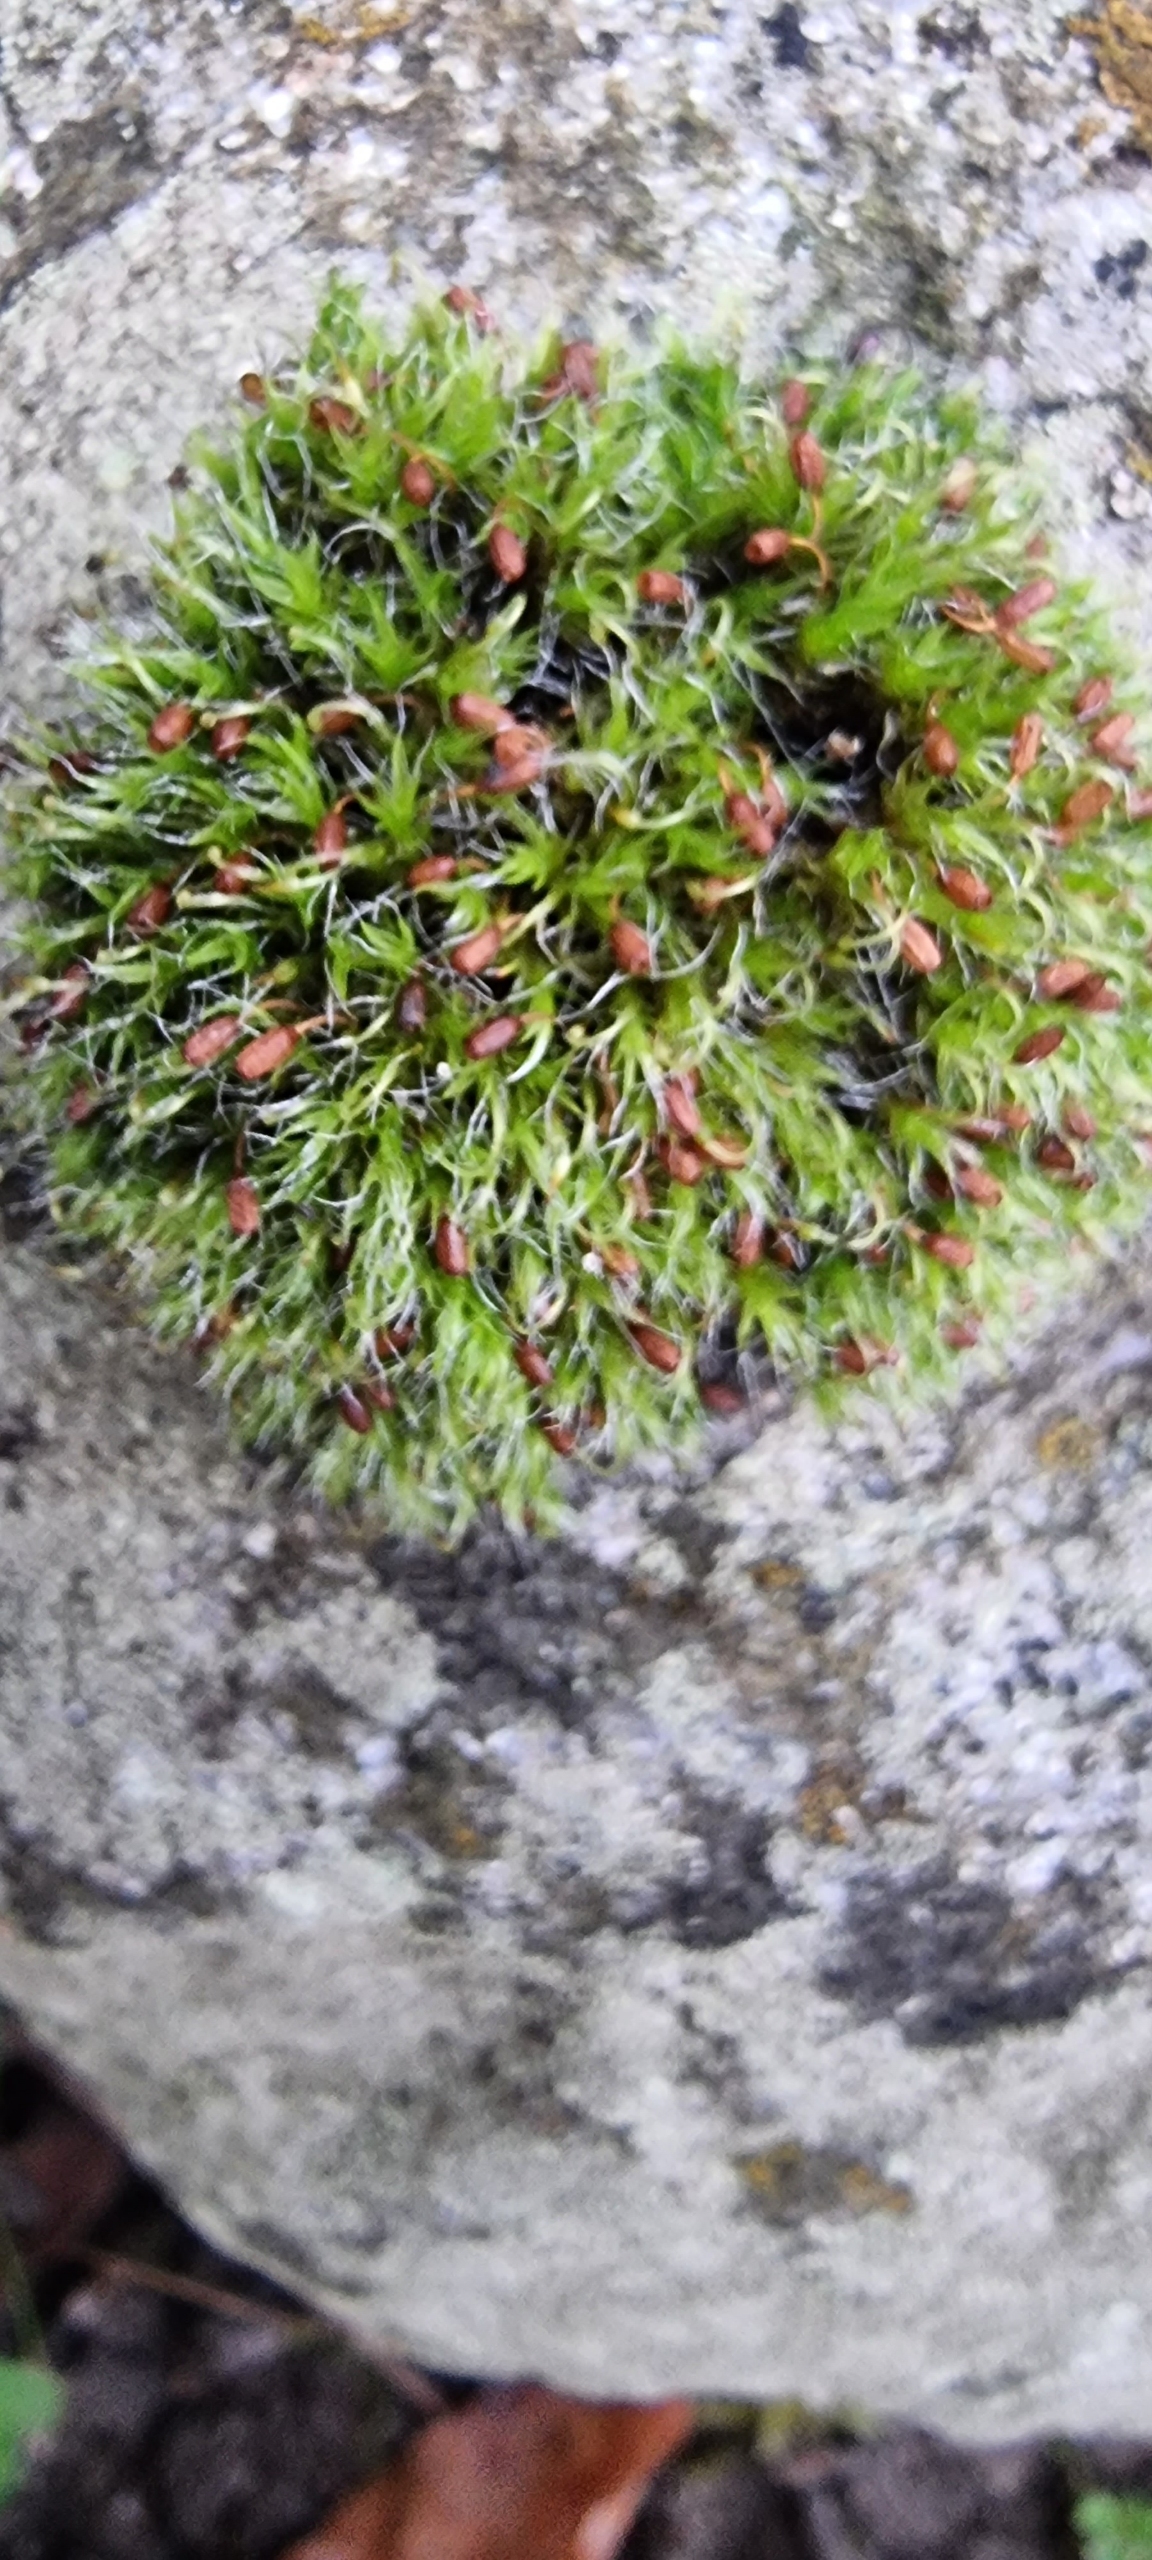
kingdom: Plantae
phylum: Bryophyta
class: Bryopsida
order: Grimmiales
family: Grimmiaceae
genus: Grimmia
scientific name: Grimmia pulvinata
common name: Pude-gråmos
